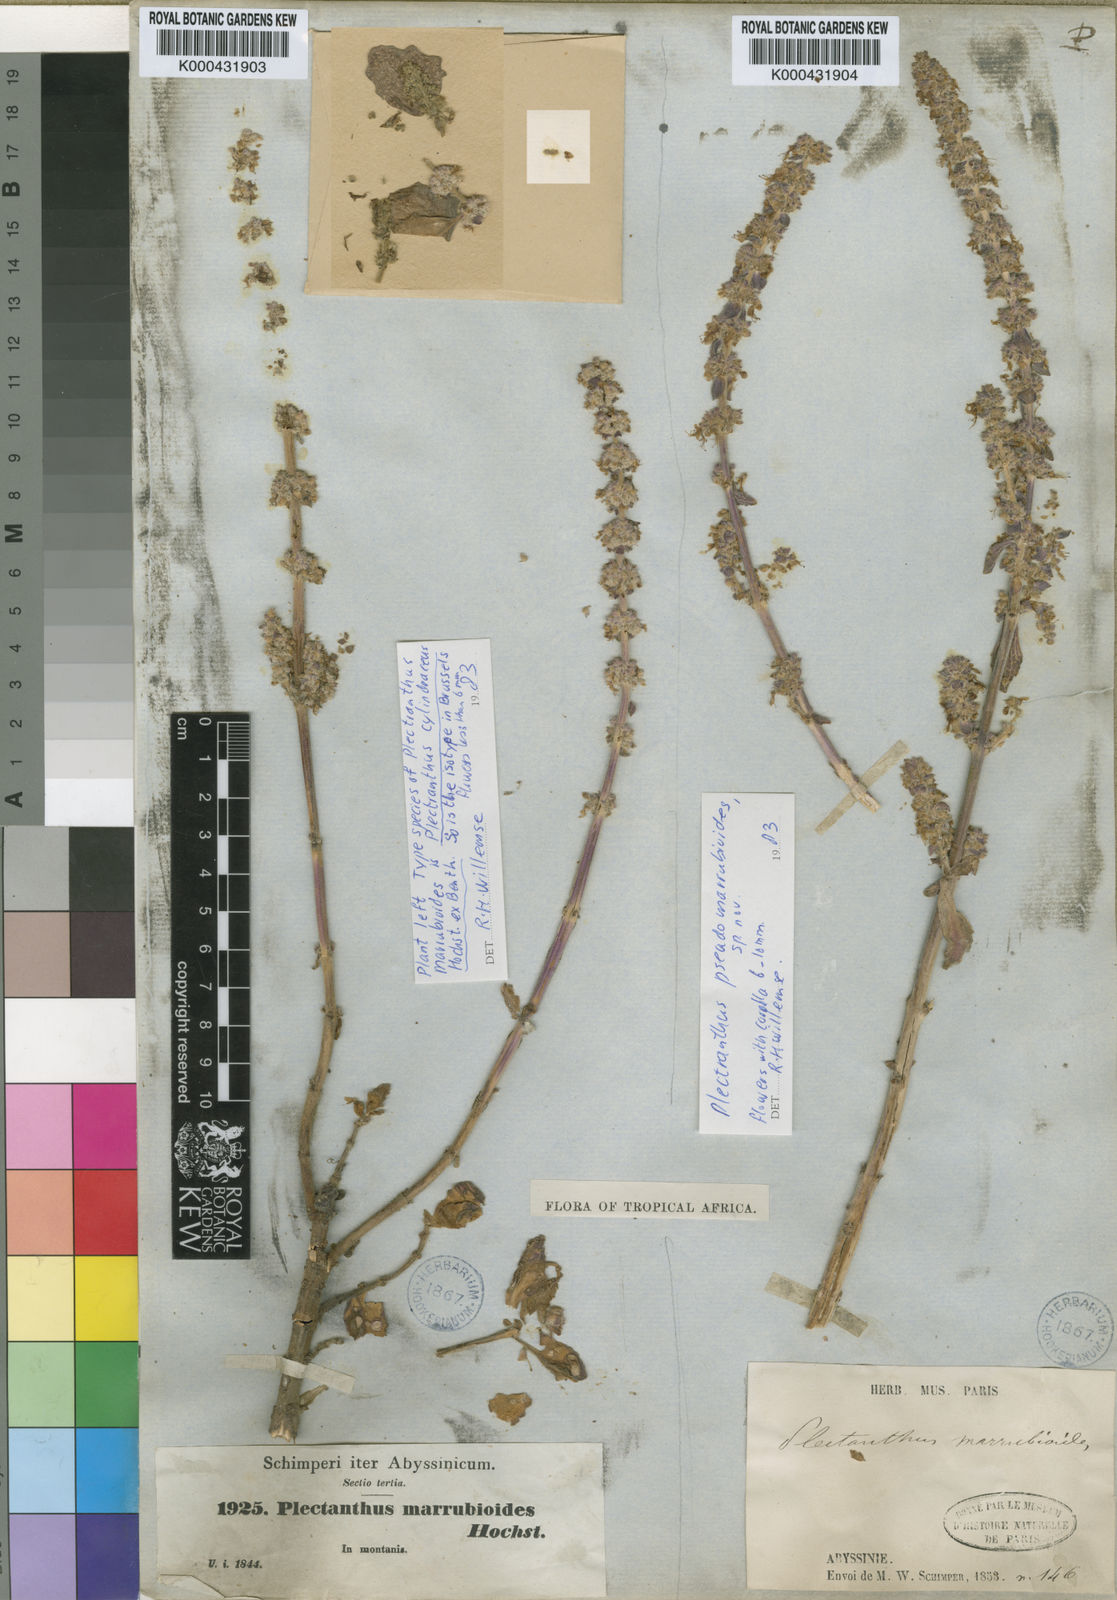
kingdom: Plantae
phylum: Tracheophyta
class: Magnoliopsida
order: Lamiales
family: Lamiaceae
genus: Coleus
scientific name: Coleus cylindraceus
